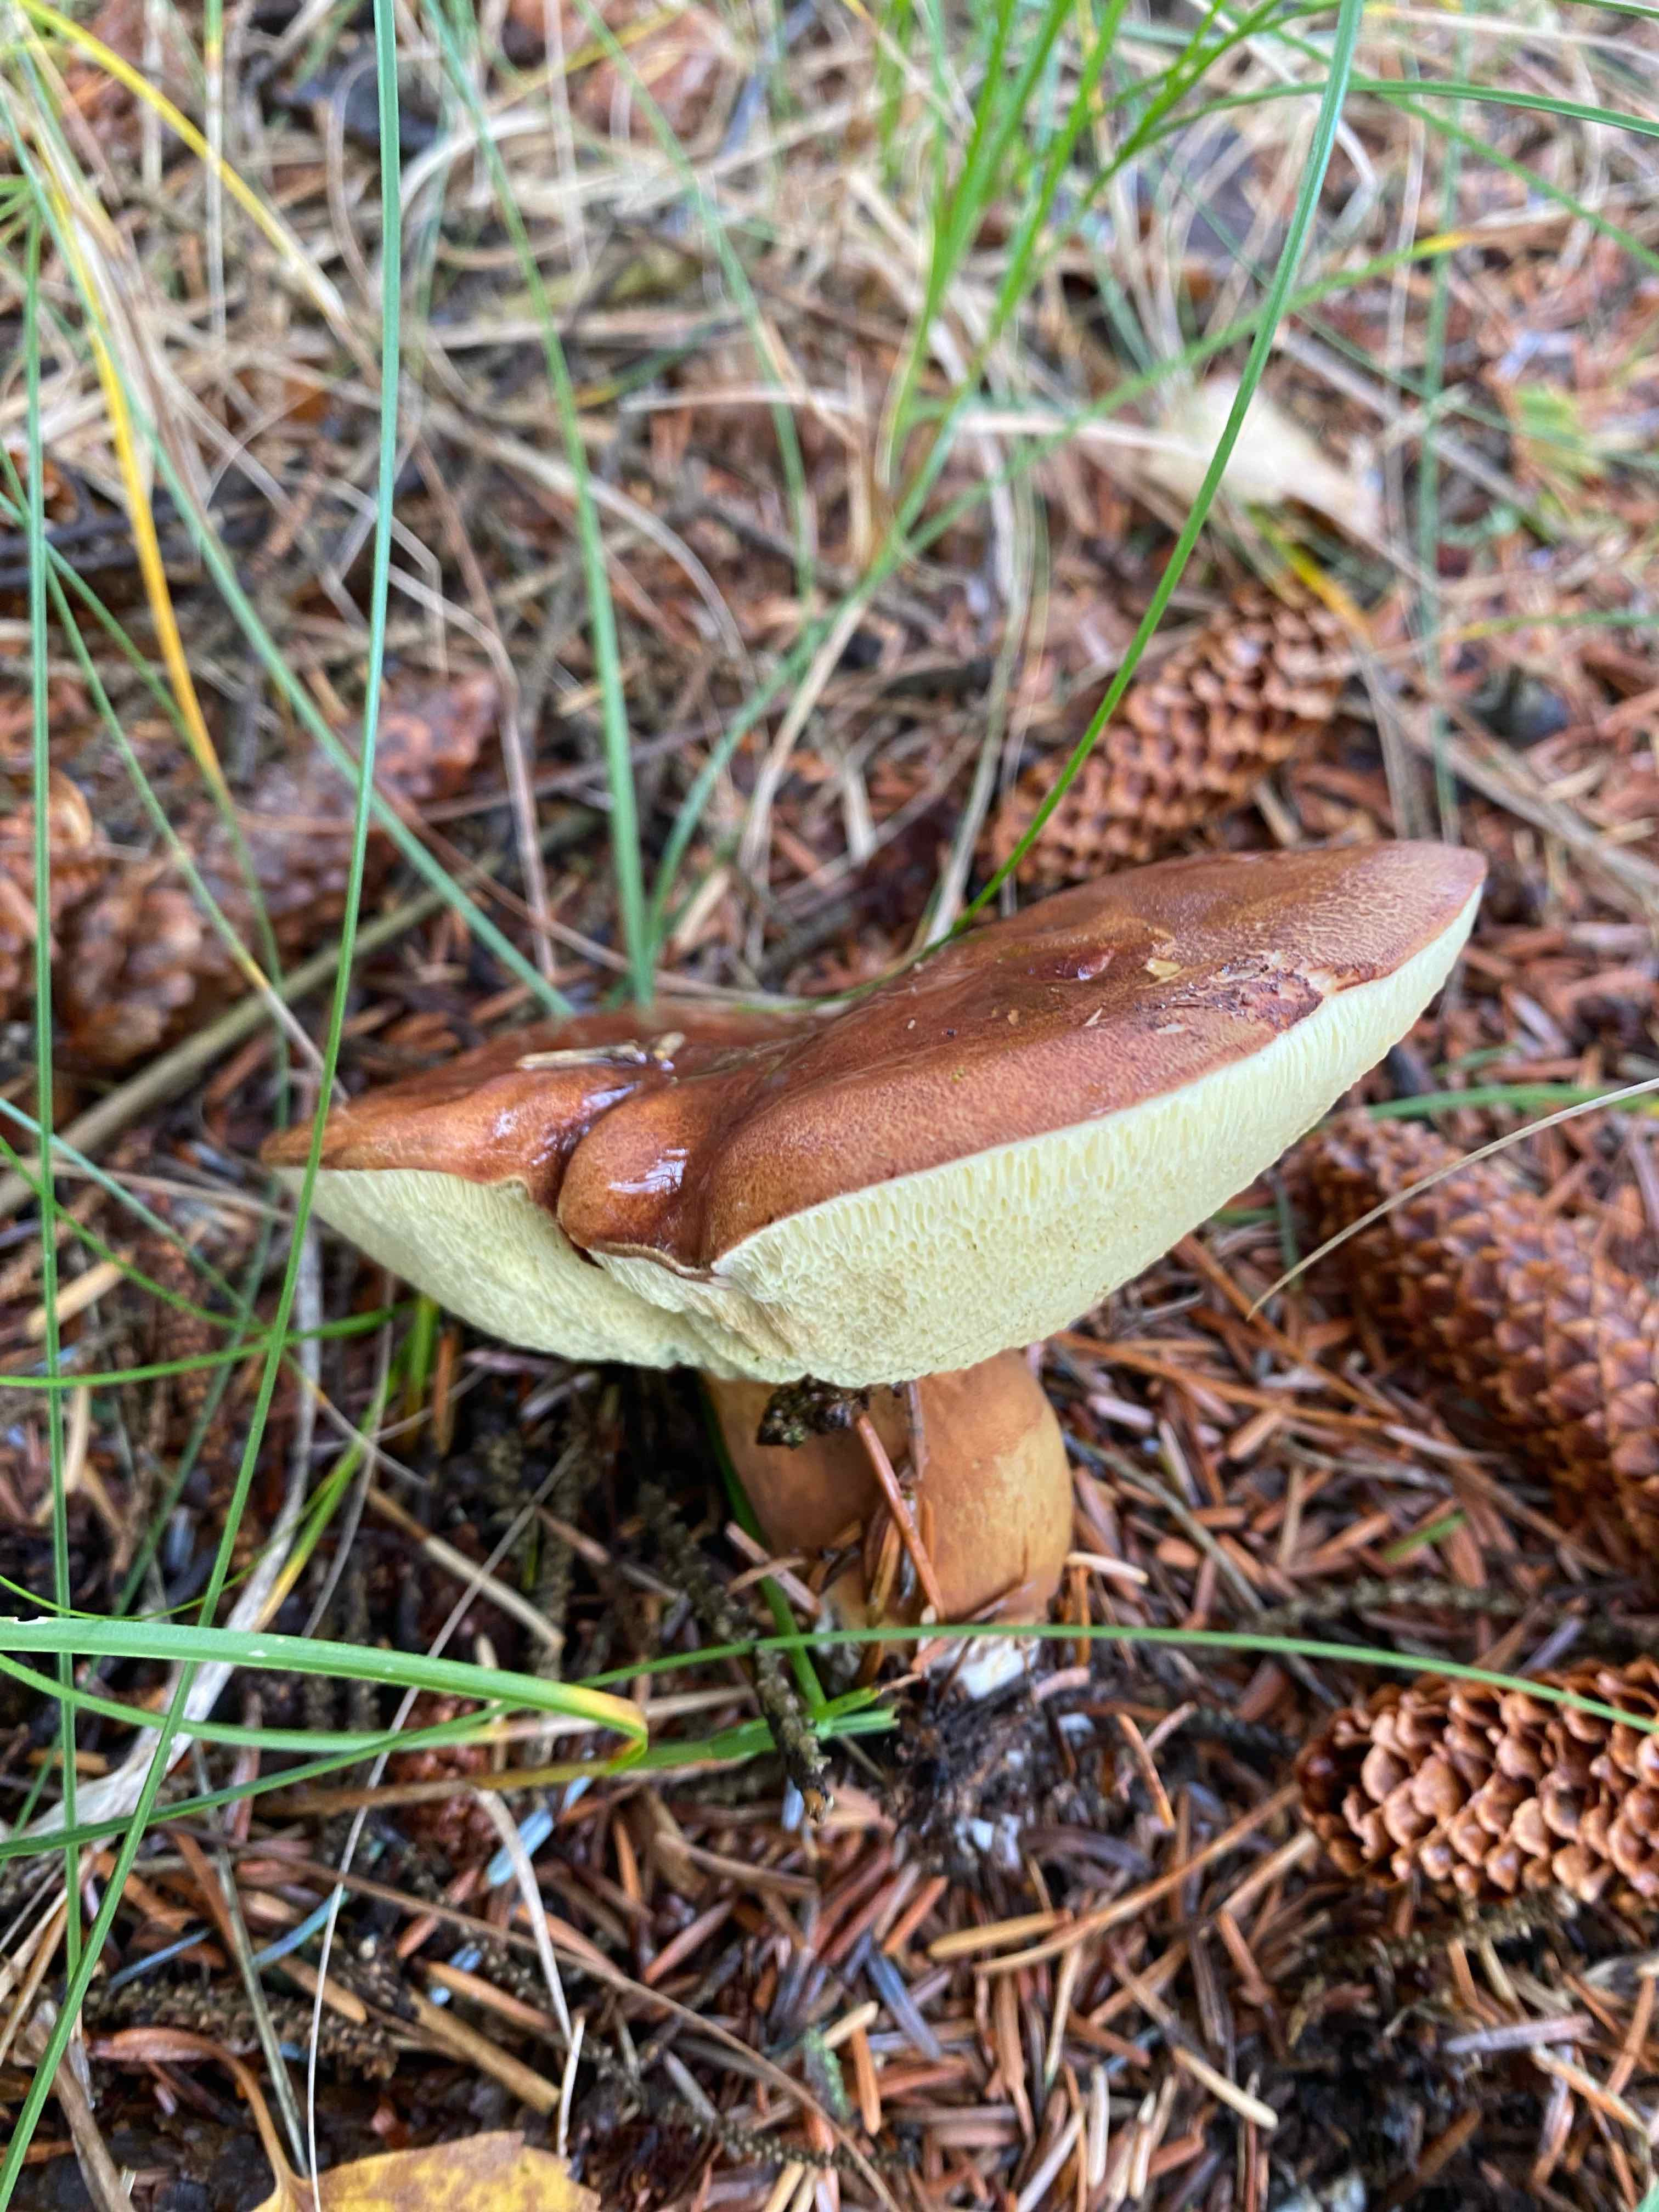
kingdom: Fungi
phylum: Basidiomycota
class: Agaricomycetes
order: Boletales
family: Boletaceae
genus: Imleria
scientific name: Imleria badia
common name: brunstokket rørhat
